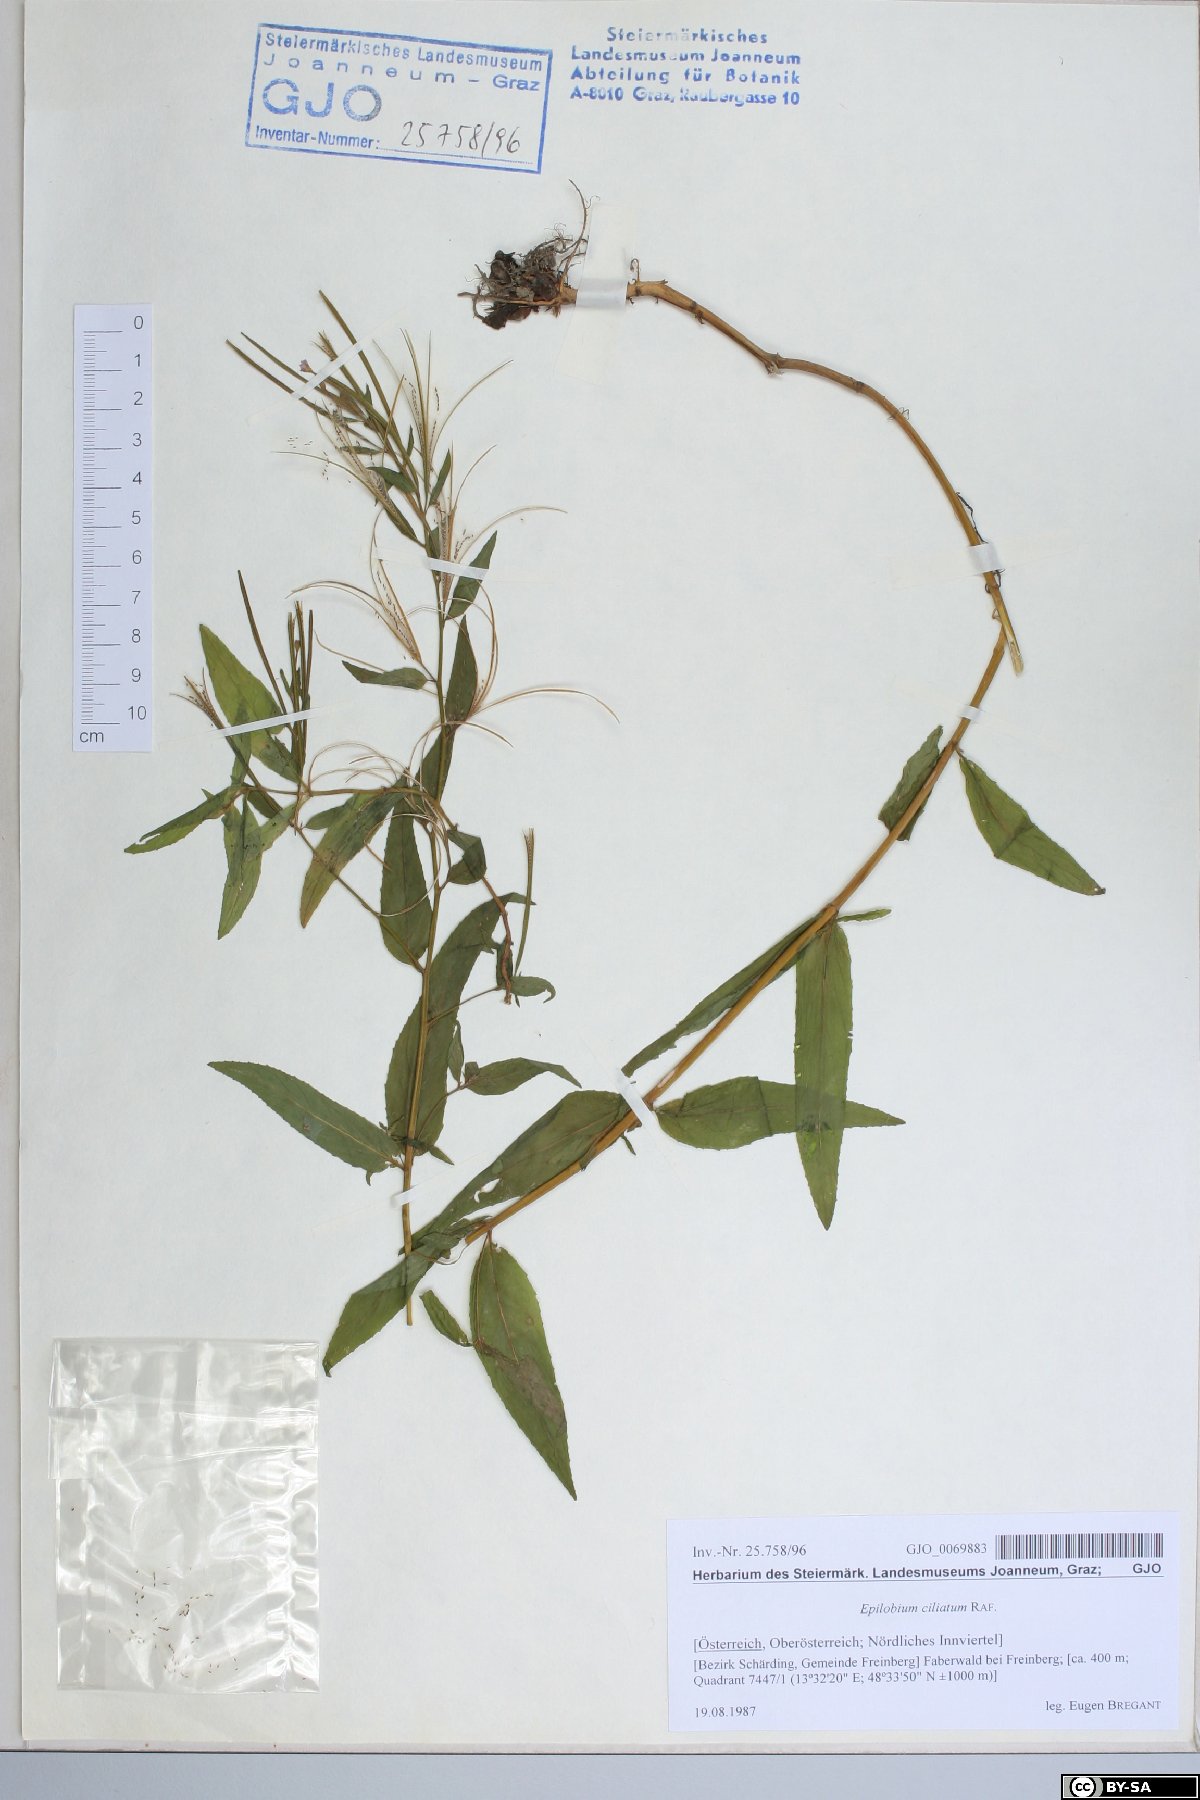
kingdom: Plantae
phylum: Tracheophyta
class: Magnoliopsida
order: Myrtales
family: Onagraceae
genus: Epilobium
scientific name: Epilobium ciliatum
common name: American willowherb
